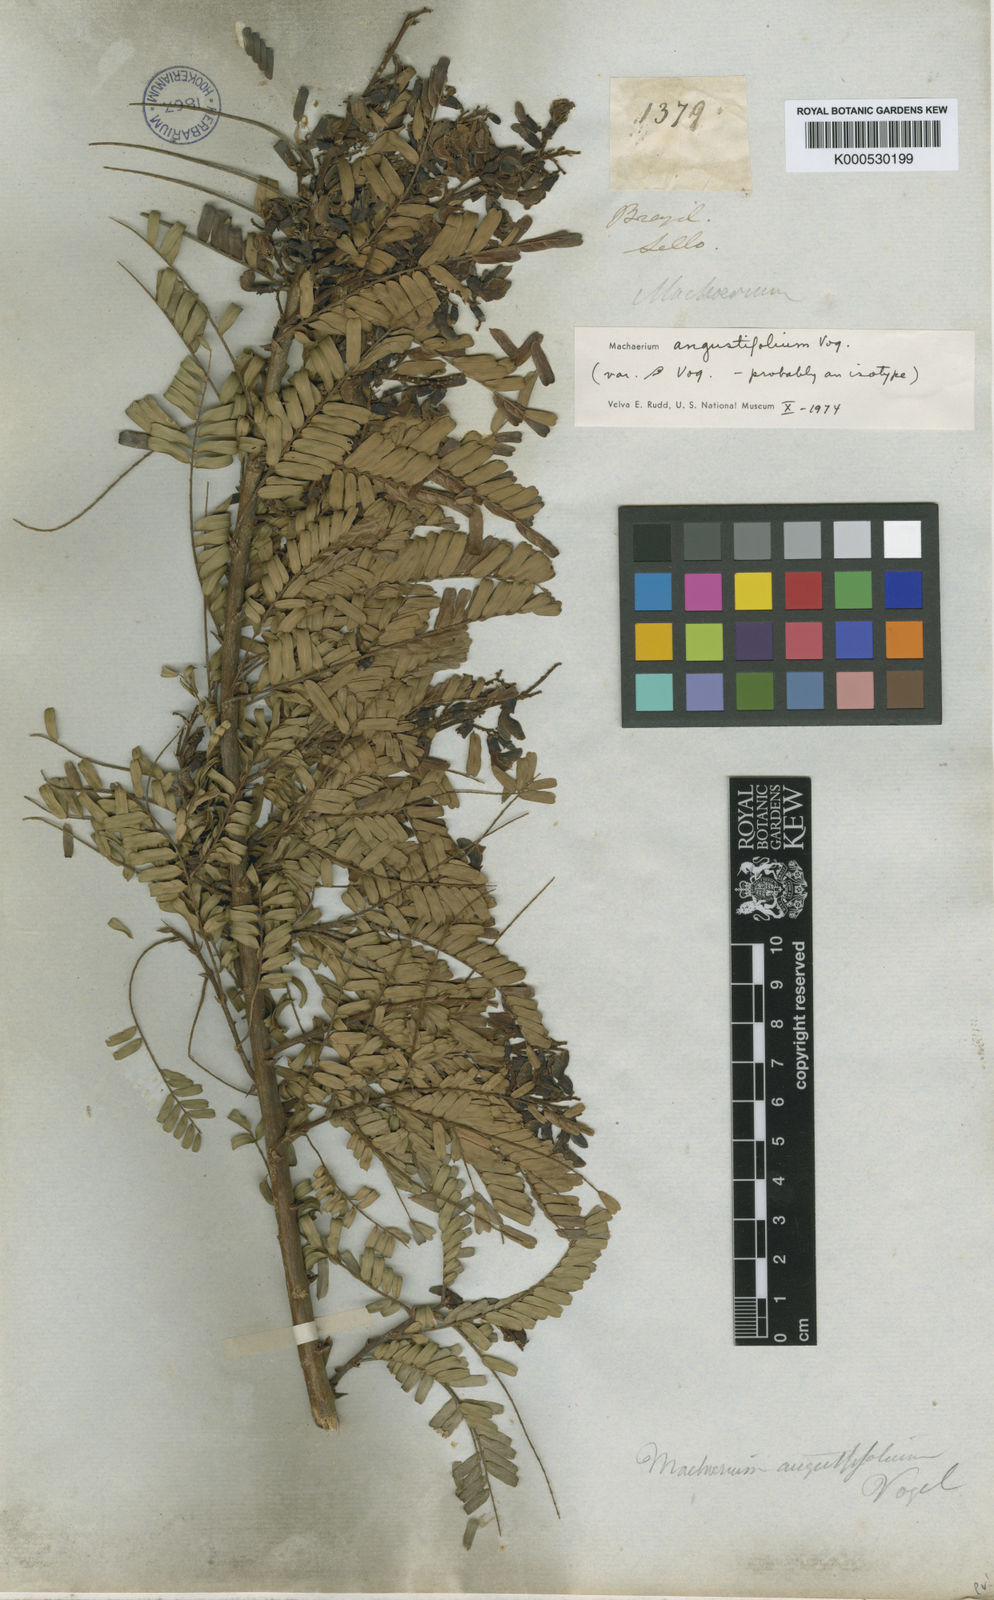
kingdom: Plantae
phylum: Tracheophyta
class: Magnoliopsida
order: Fabales
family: Fabaceae
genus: Machaerium
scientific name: Machaerium aculeatum
